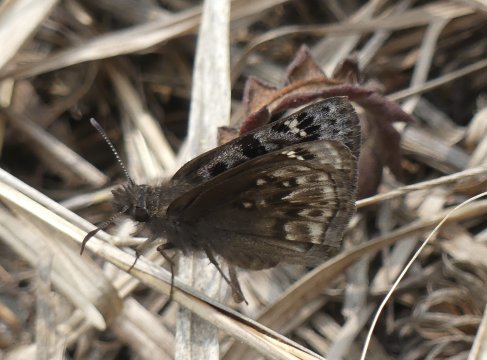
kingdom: Animalia
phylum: Arthropoda
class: Insecta
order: Lepidoptera
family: Hesperiidae
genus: Erynnis
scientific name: Erynnis martialis
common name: Mottled Duskywing
